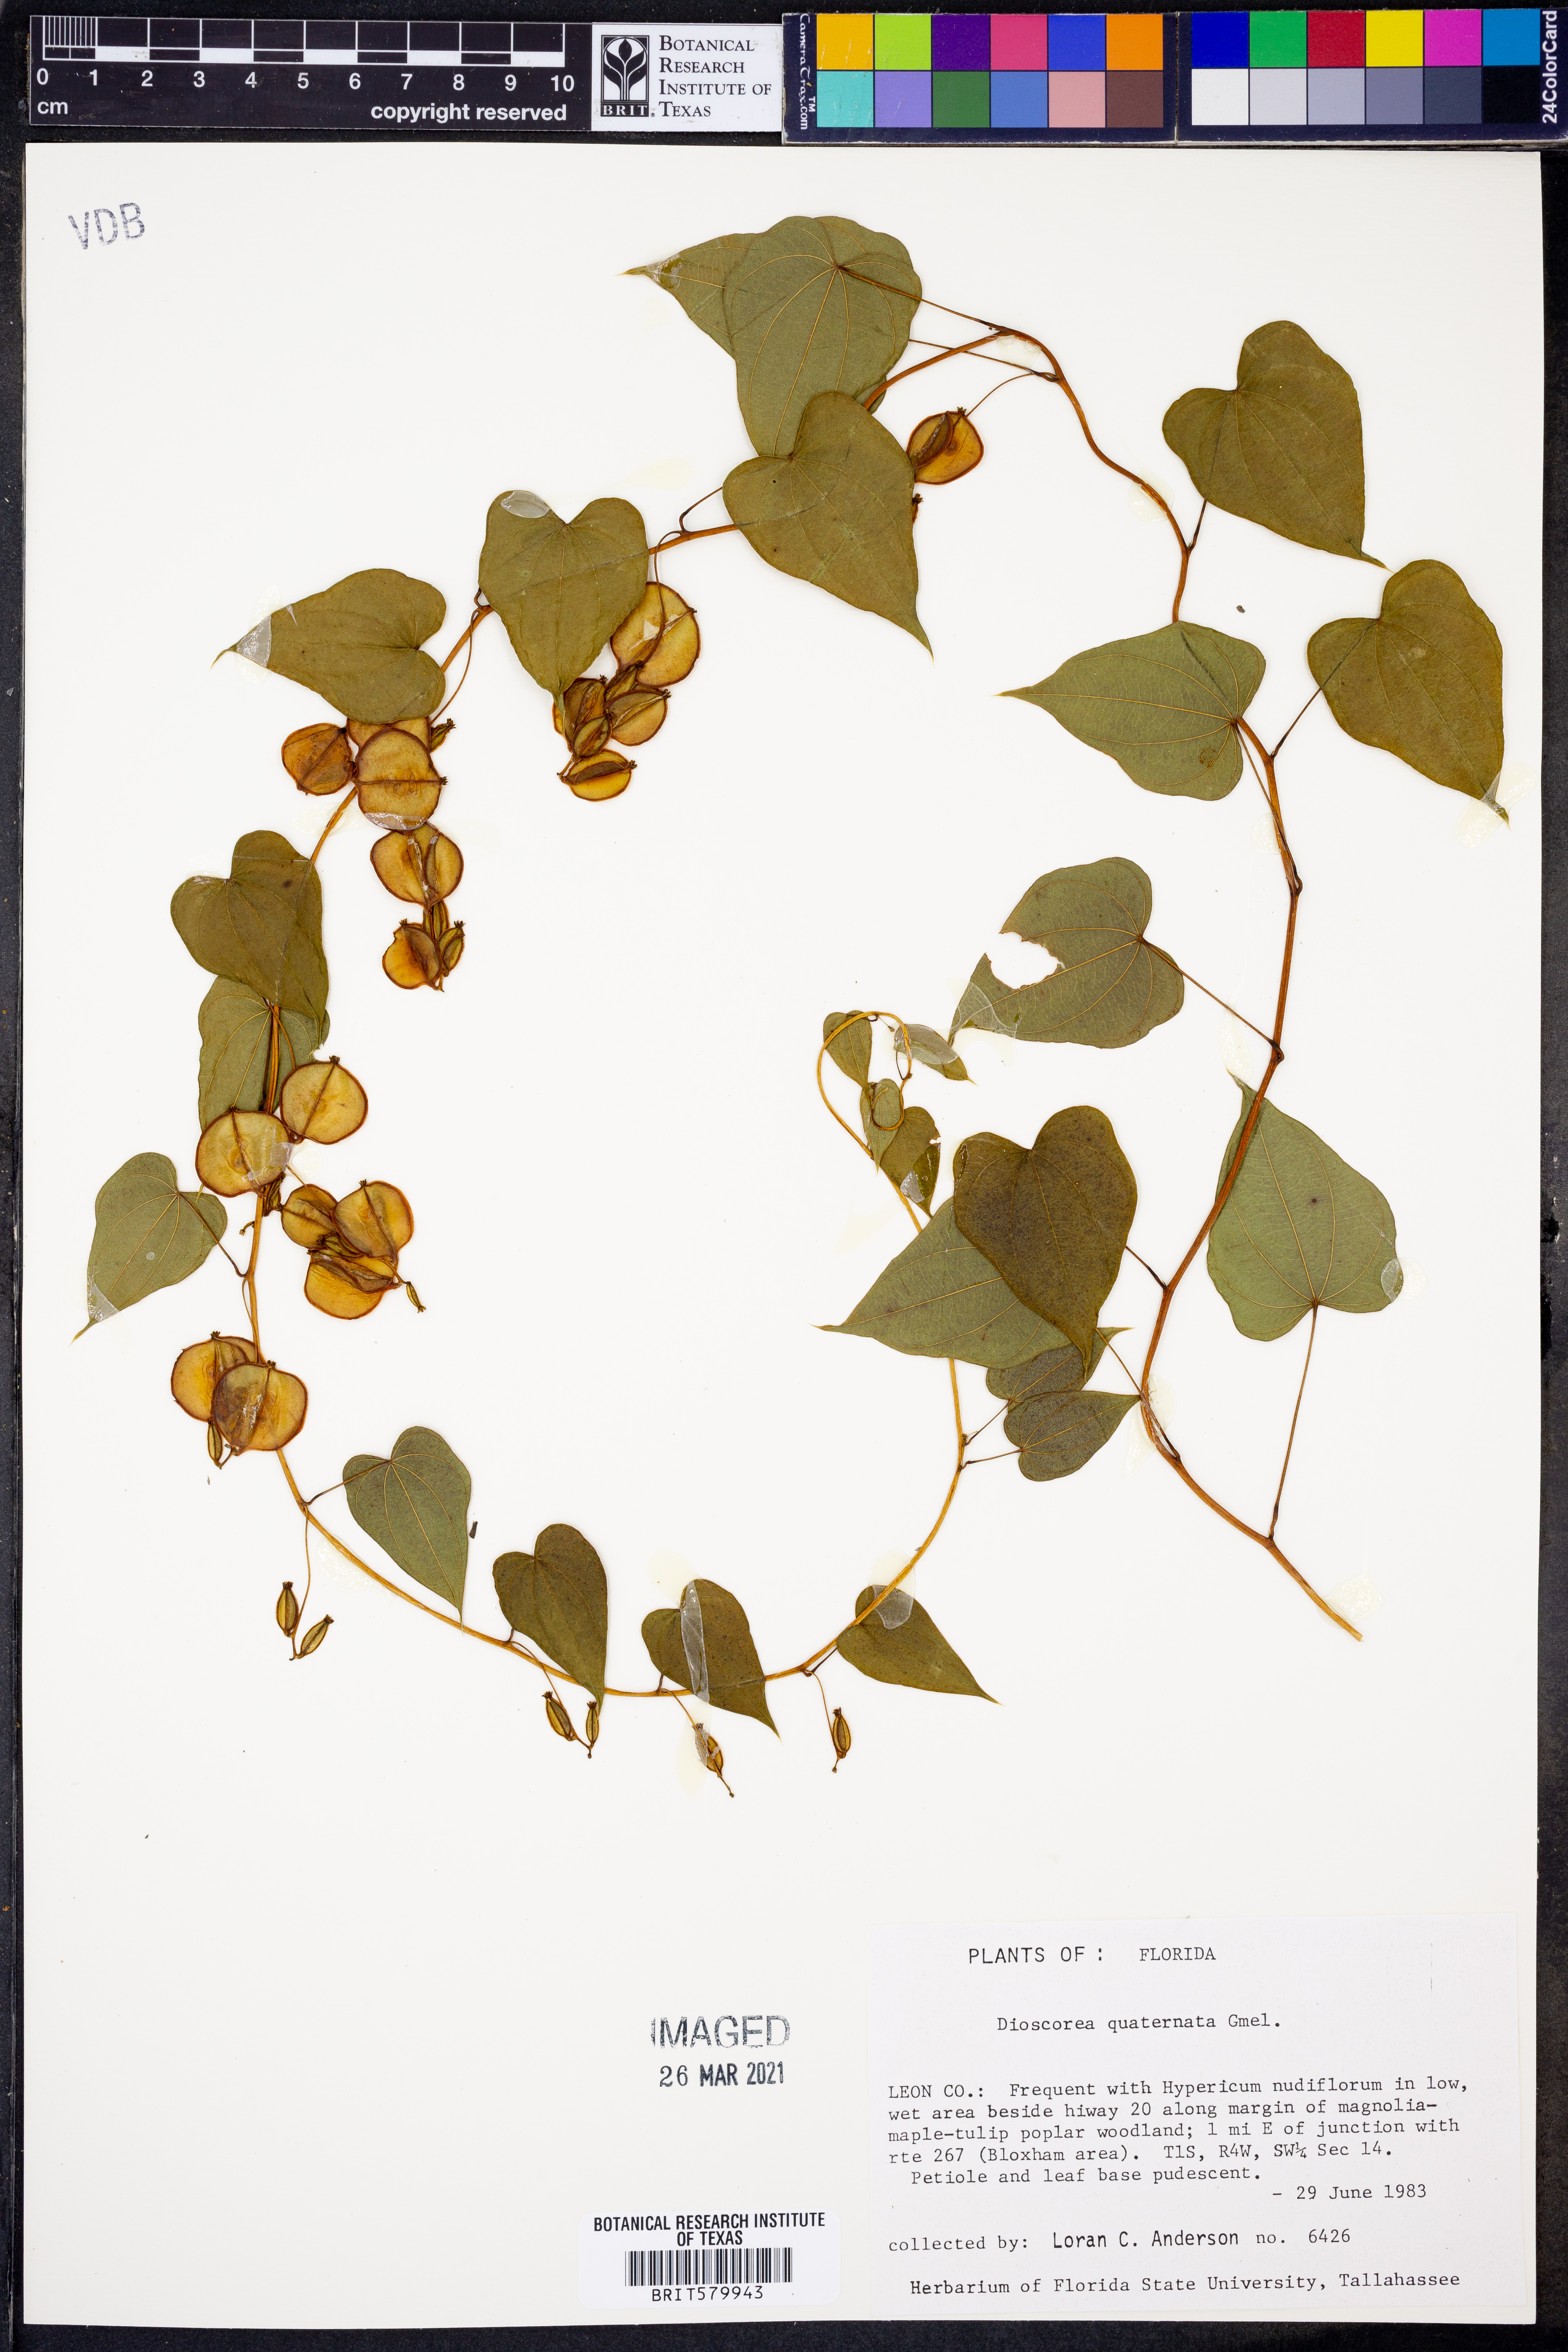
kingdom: Plantae
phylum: Tracheophyta
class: Liliopsida
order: Dioscoreales
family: Dioscoreaceae
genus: Dioscorea
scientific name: Dioscorea quaternata
